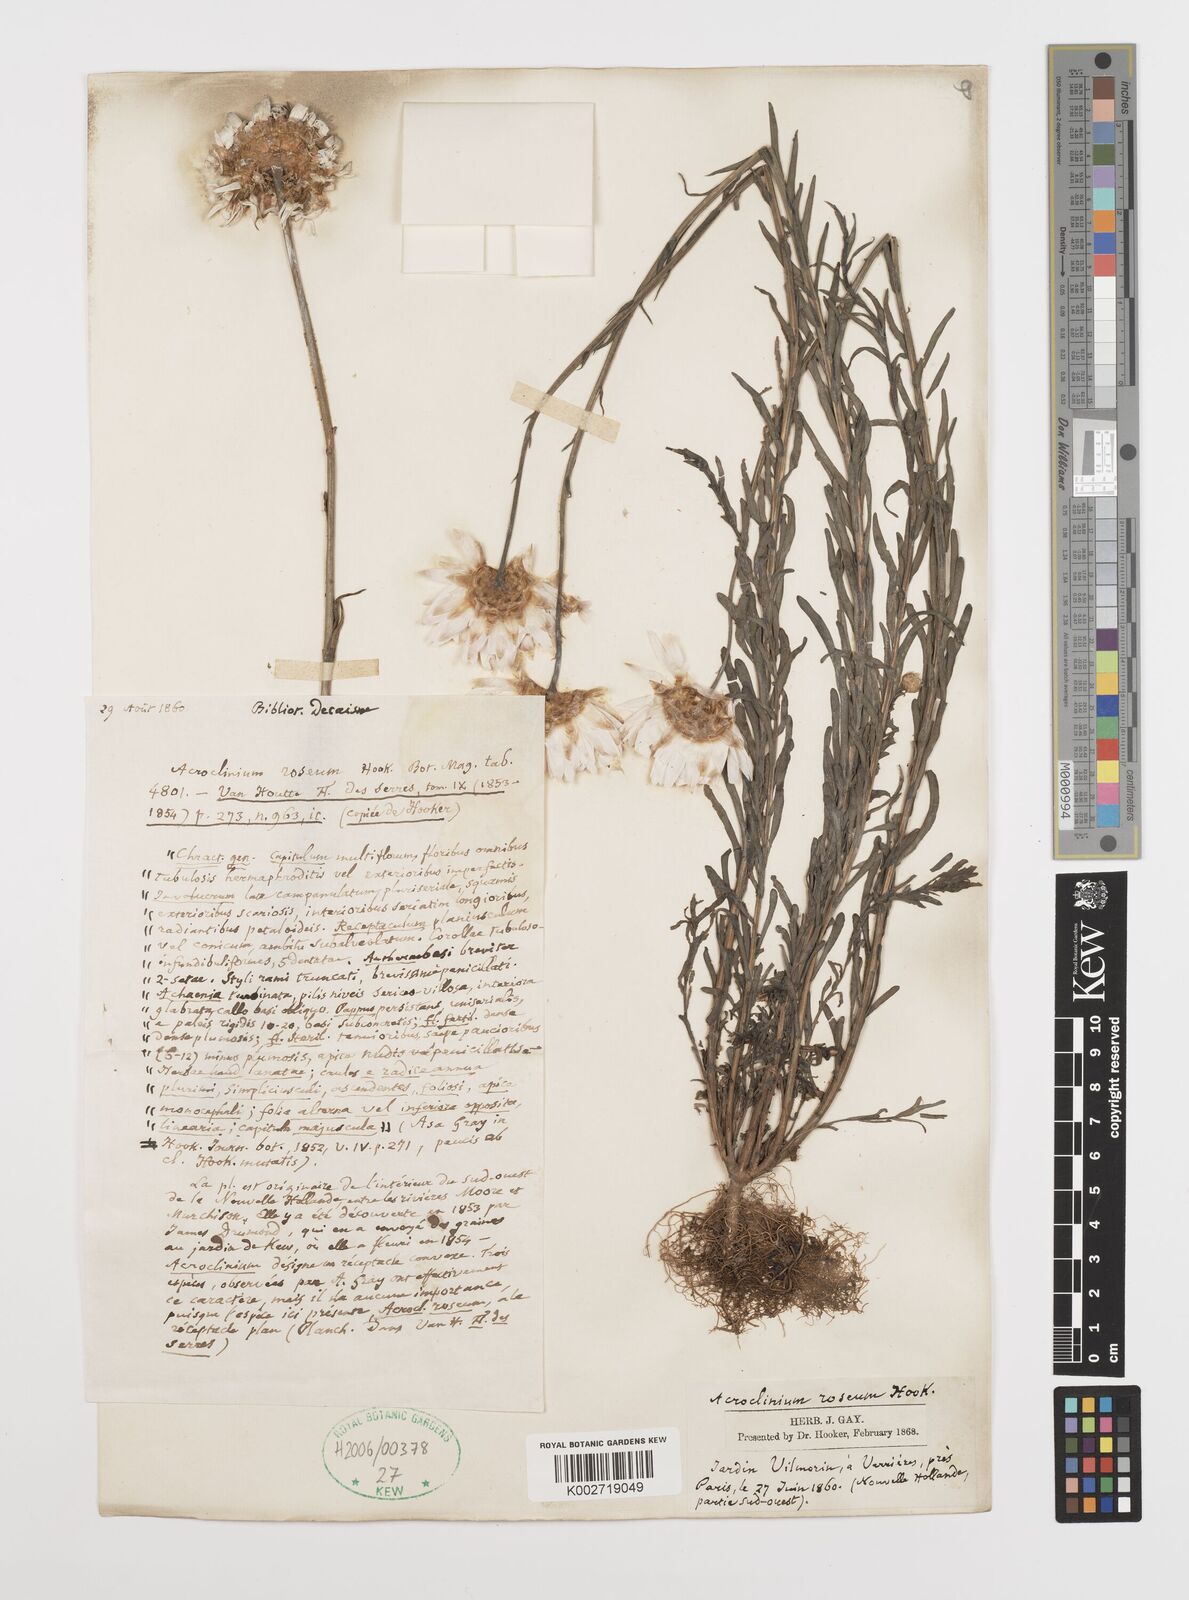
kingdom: Plantae
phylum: Tracheophyta
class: Magnoliopsida
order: Asterales
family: Asteraceae
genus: Rhodanthe
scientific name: Rhodanthe chlorocephala
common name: Rosy sunray
